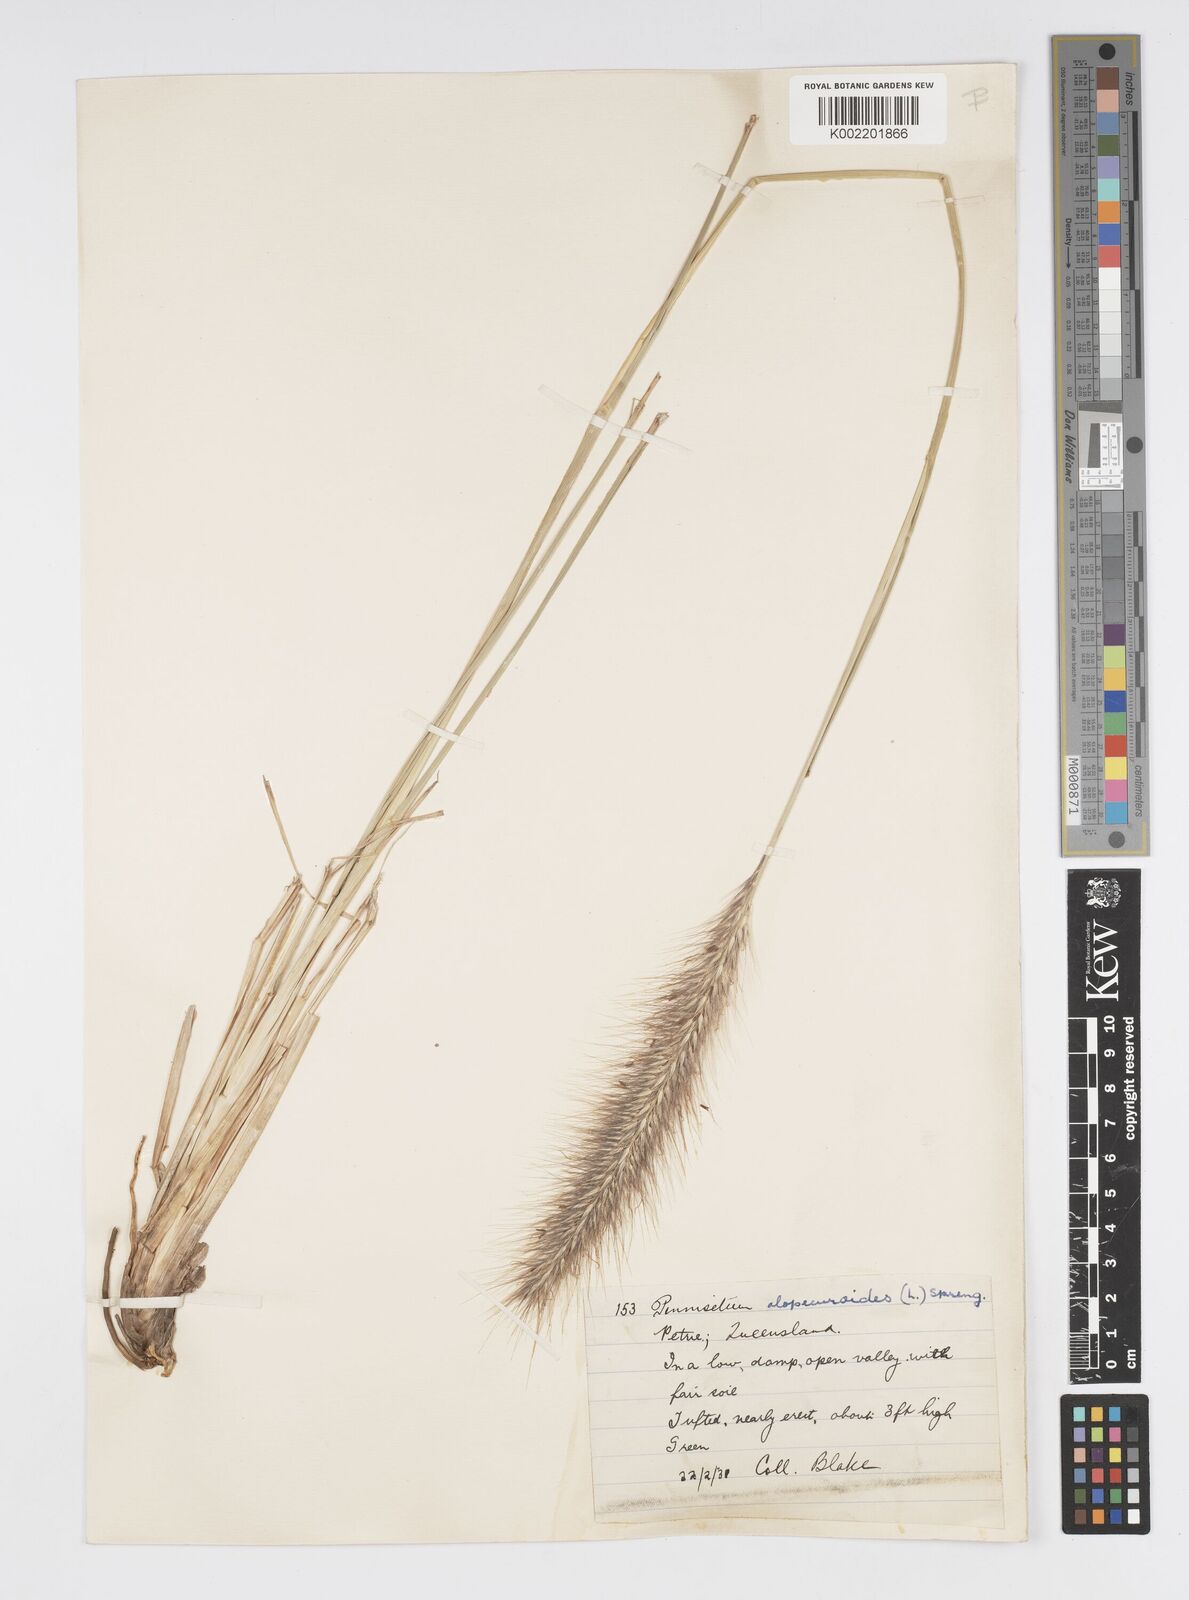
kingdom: Plantae
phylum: Tracheophyta
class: Liliopsida
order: Poales
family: Poaceae
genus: Cenchrus
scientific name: Cenchrus alopecuroides
